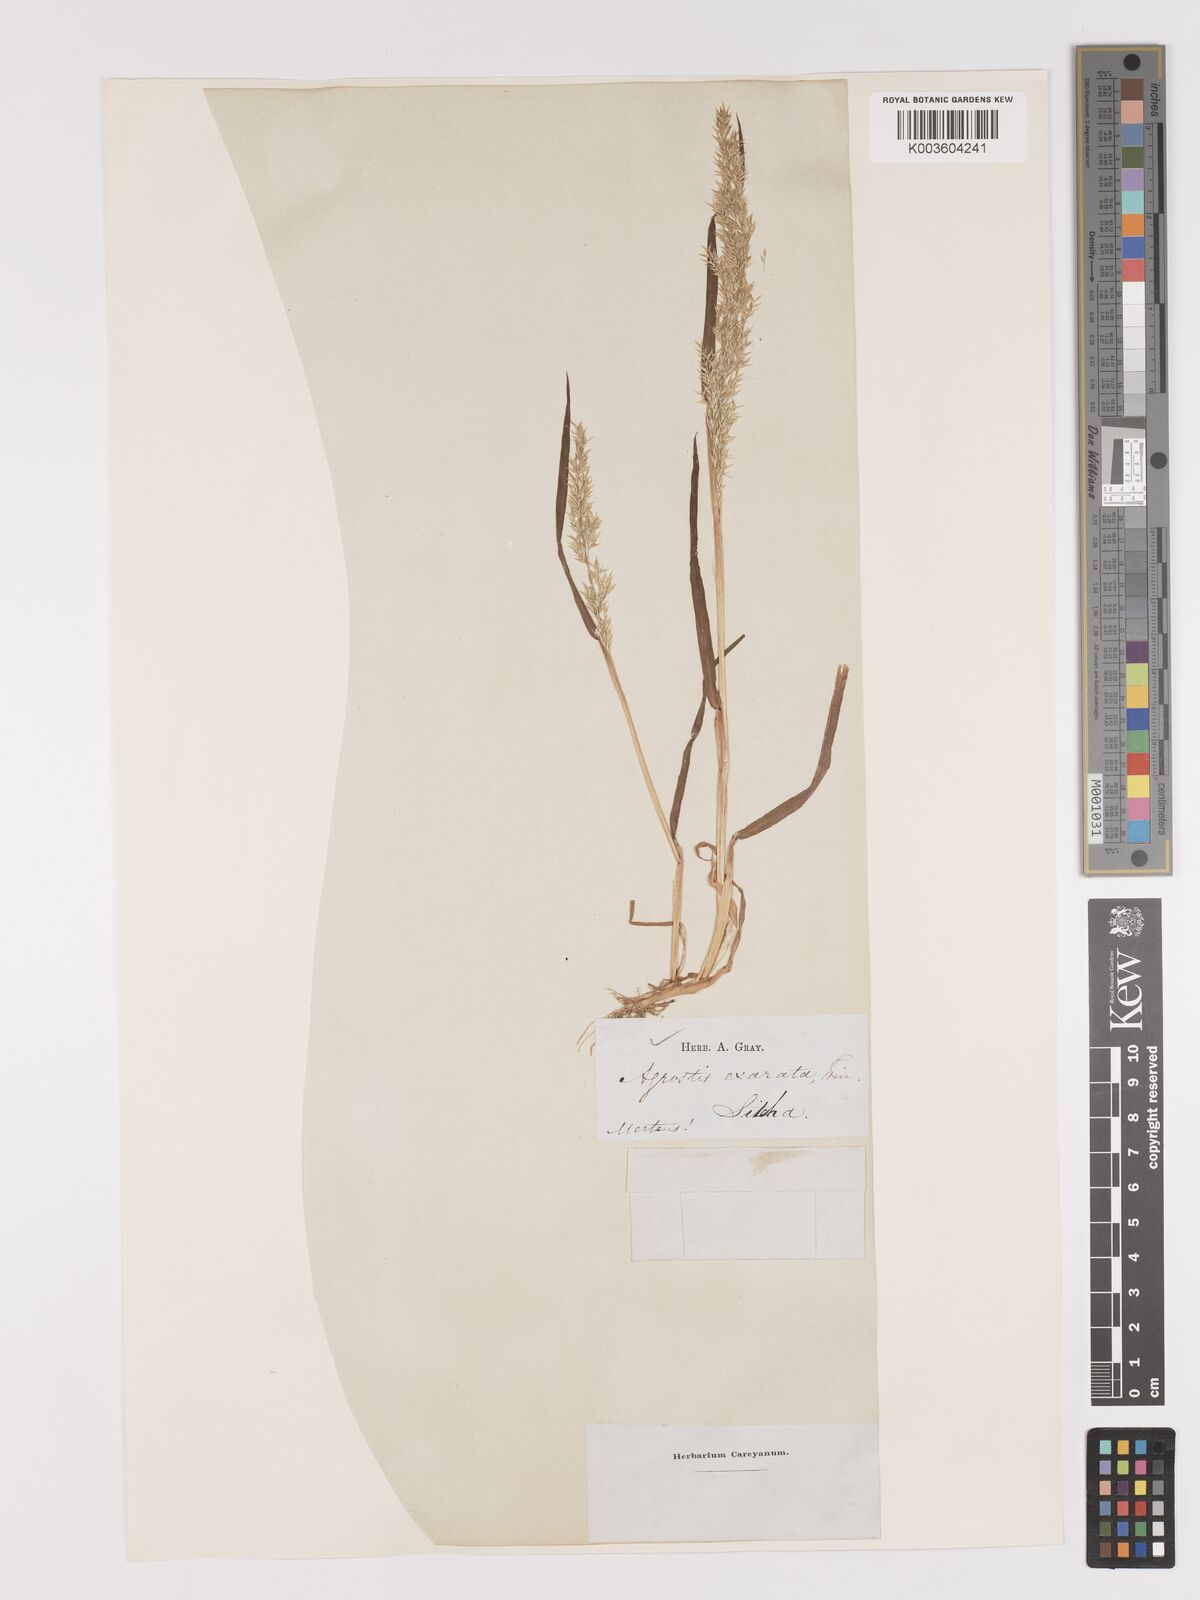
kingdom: Plantae
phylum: Tracheophyta
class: Liliopsida
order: Poales
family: Poaceae
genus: Agrostis
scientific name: Agrostis exarata
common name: Spike bent
